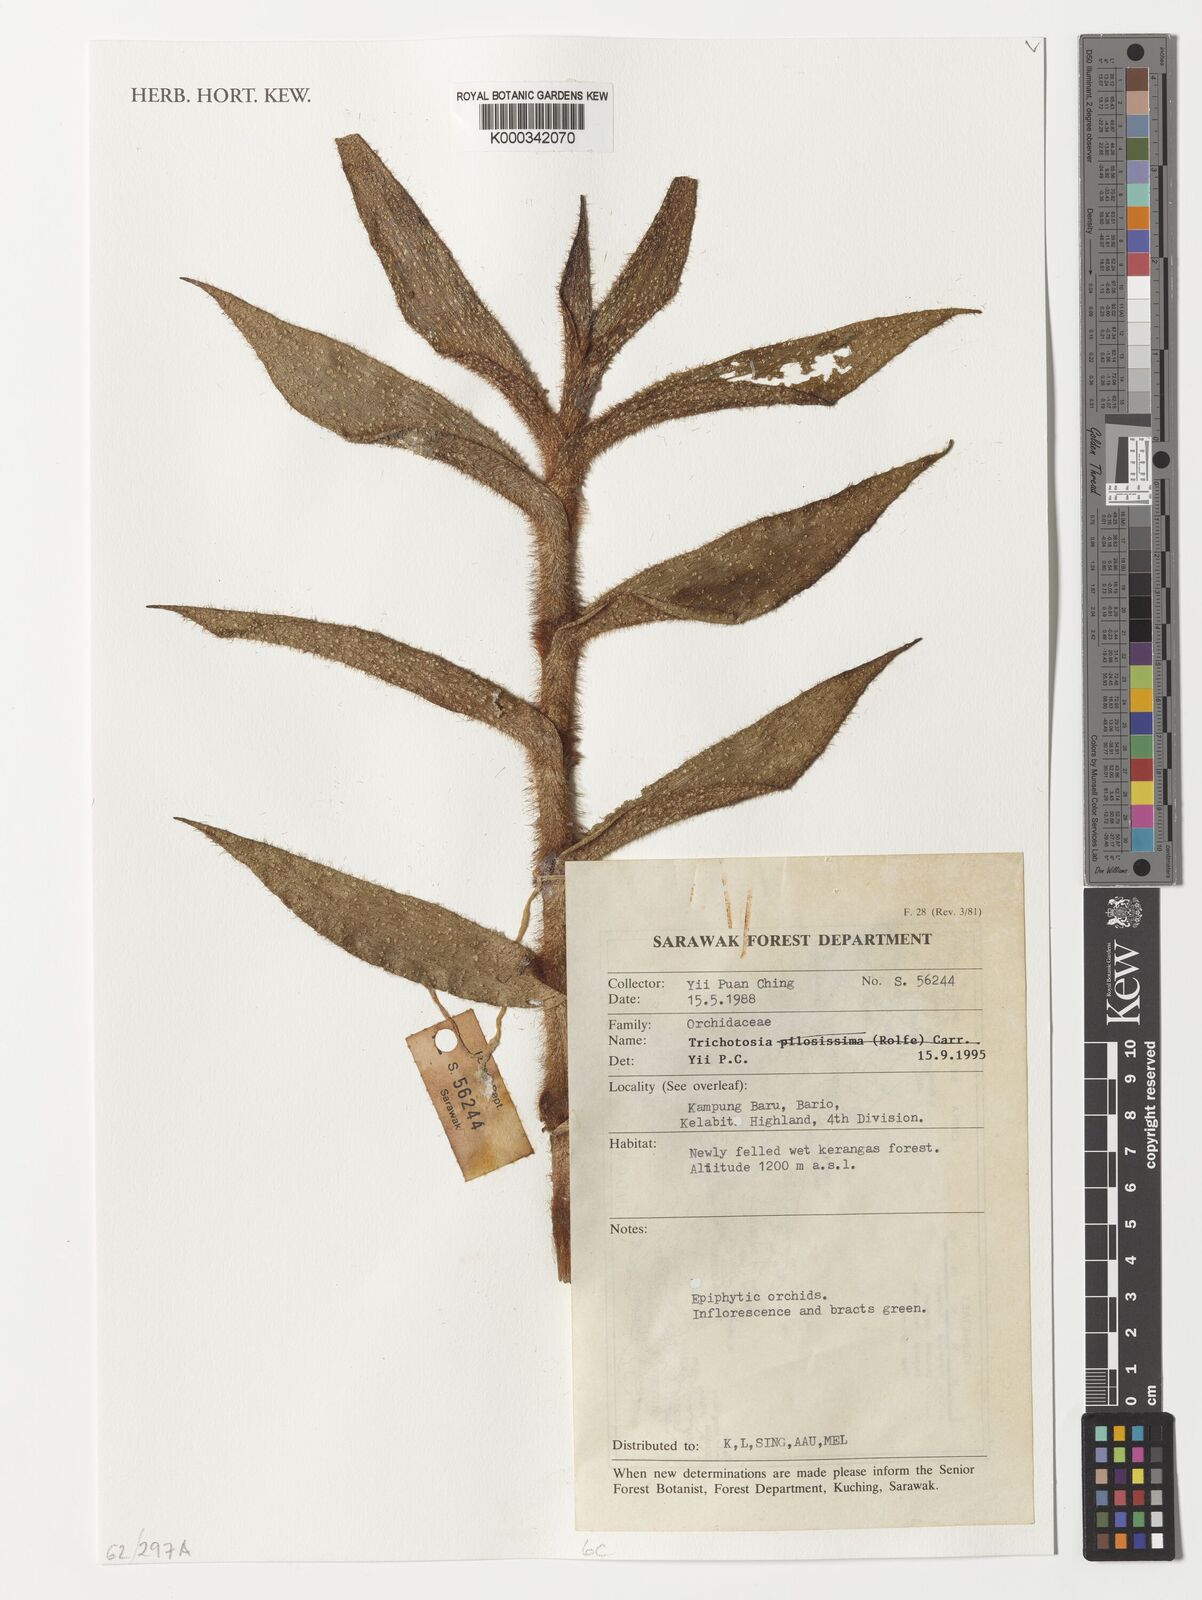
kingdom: Plantae
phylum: Tracheophyta
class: Liliopsida
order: Asparagales
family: Orchidaceae
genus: Trichotosia
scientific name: Trichotosia
